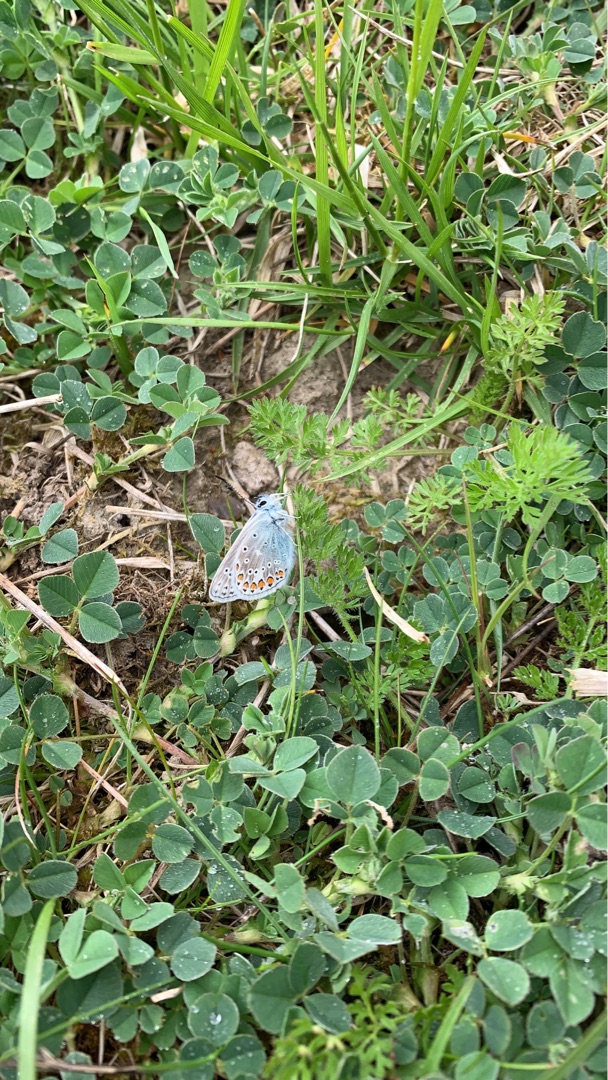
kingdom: Animalia
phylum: Arthropoda
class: Insecta
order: Lepidoptera
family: Lycaenidae
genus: Polyommatus
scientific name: Polyommatus icarus
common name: Almindelig blåfugl
